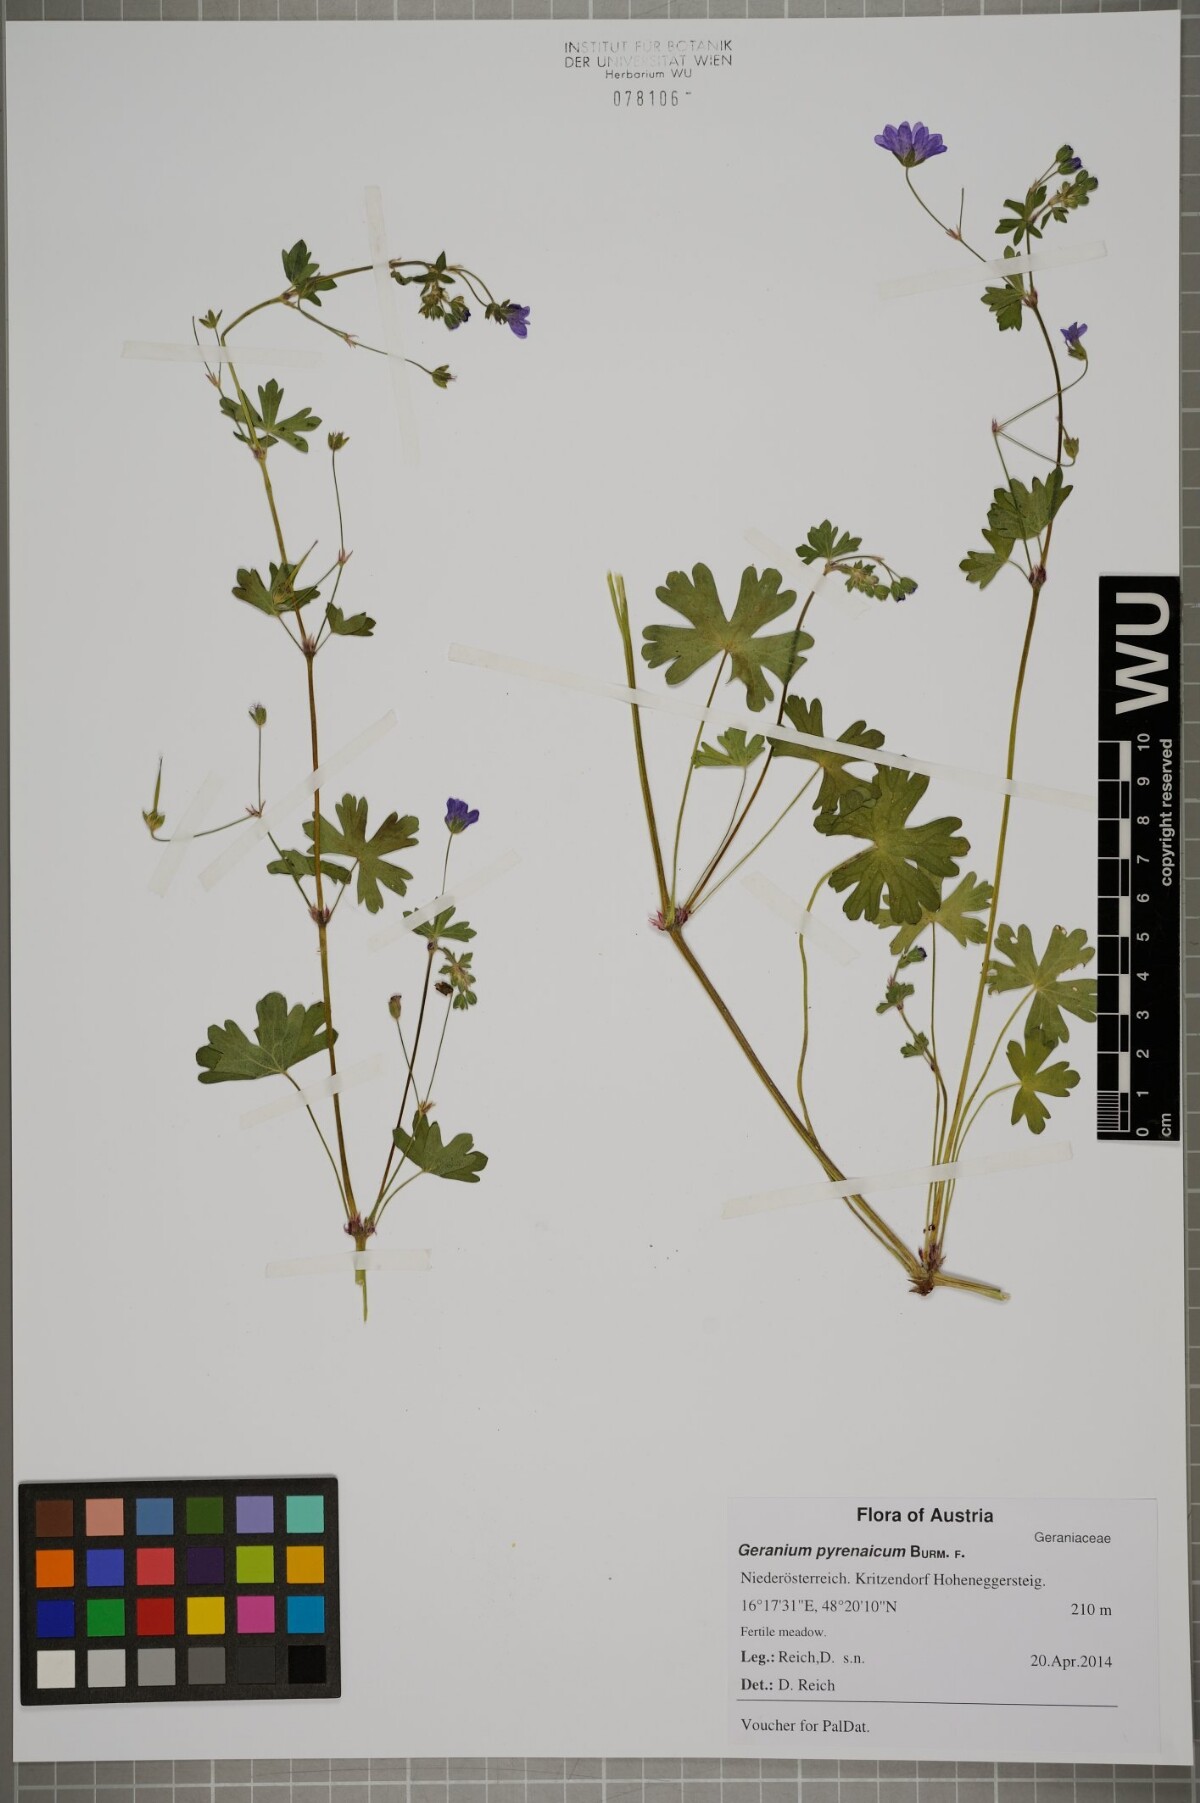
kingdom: Plantae
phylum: Tracheophyta
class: Magnoliopsida
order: Geraniales
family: Geraniaceae
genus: Geranium
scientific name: Geranium pyrenaicum
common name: Hedgerow crane's-bill
